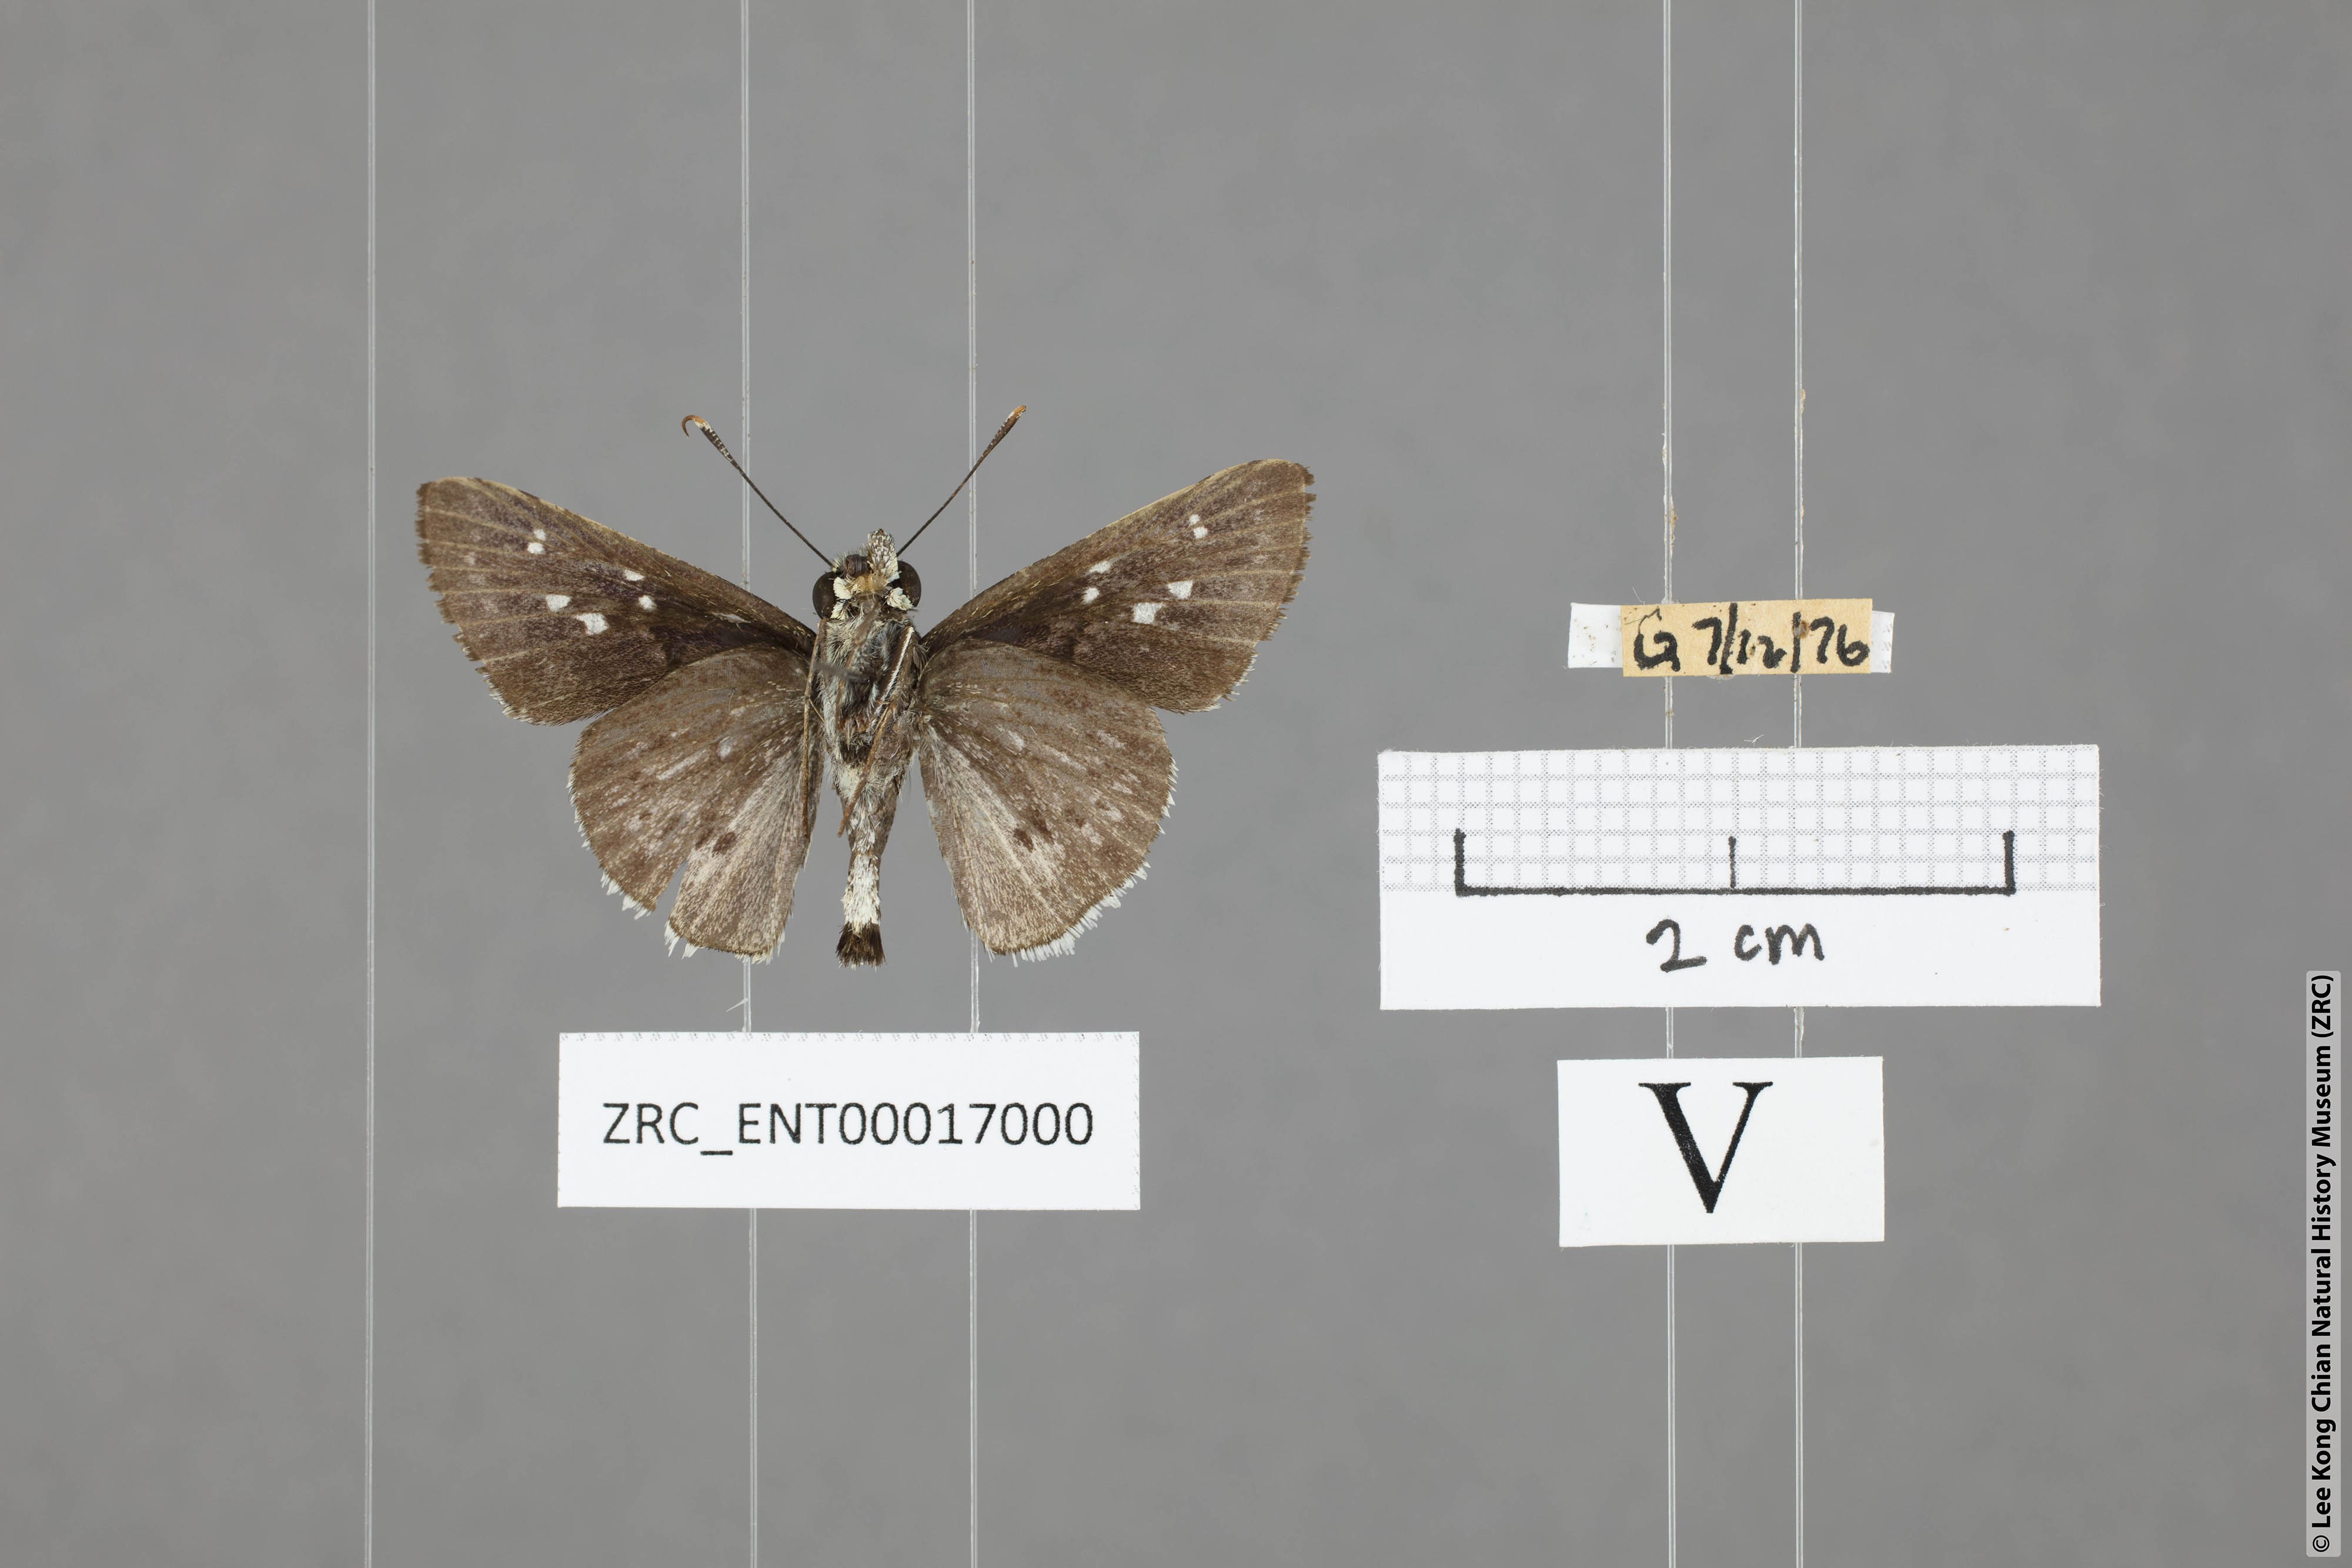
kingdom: Animalia
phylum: Arthropoda
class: Insecta
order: Lepidoptera
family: Hesperiidae
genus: Halpe
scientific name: Halpe insignis
